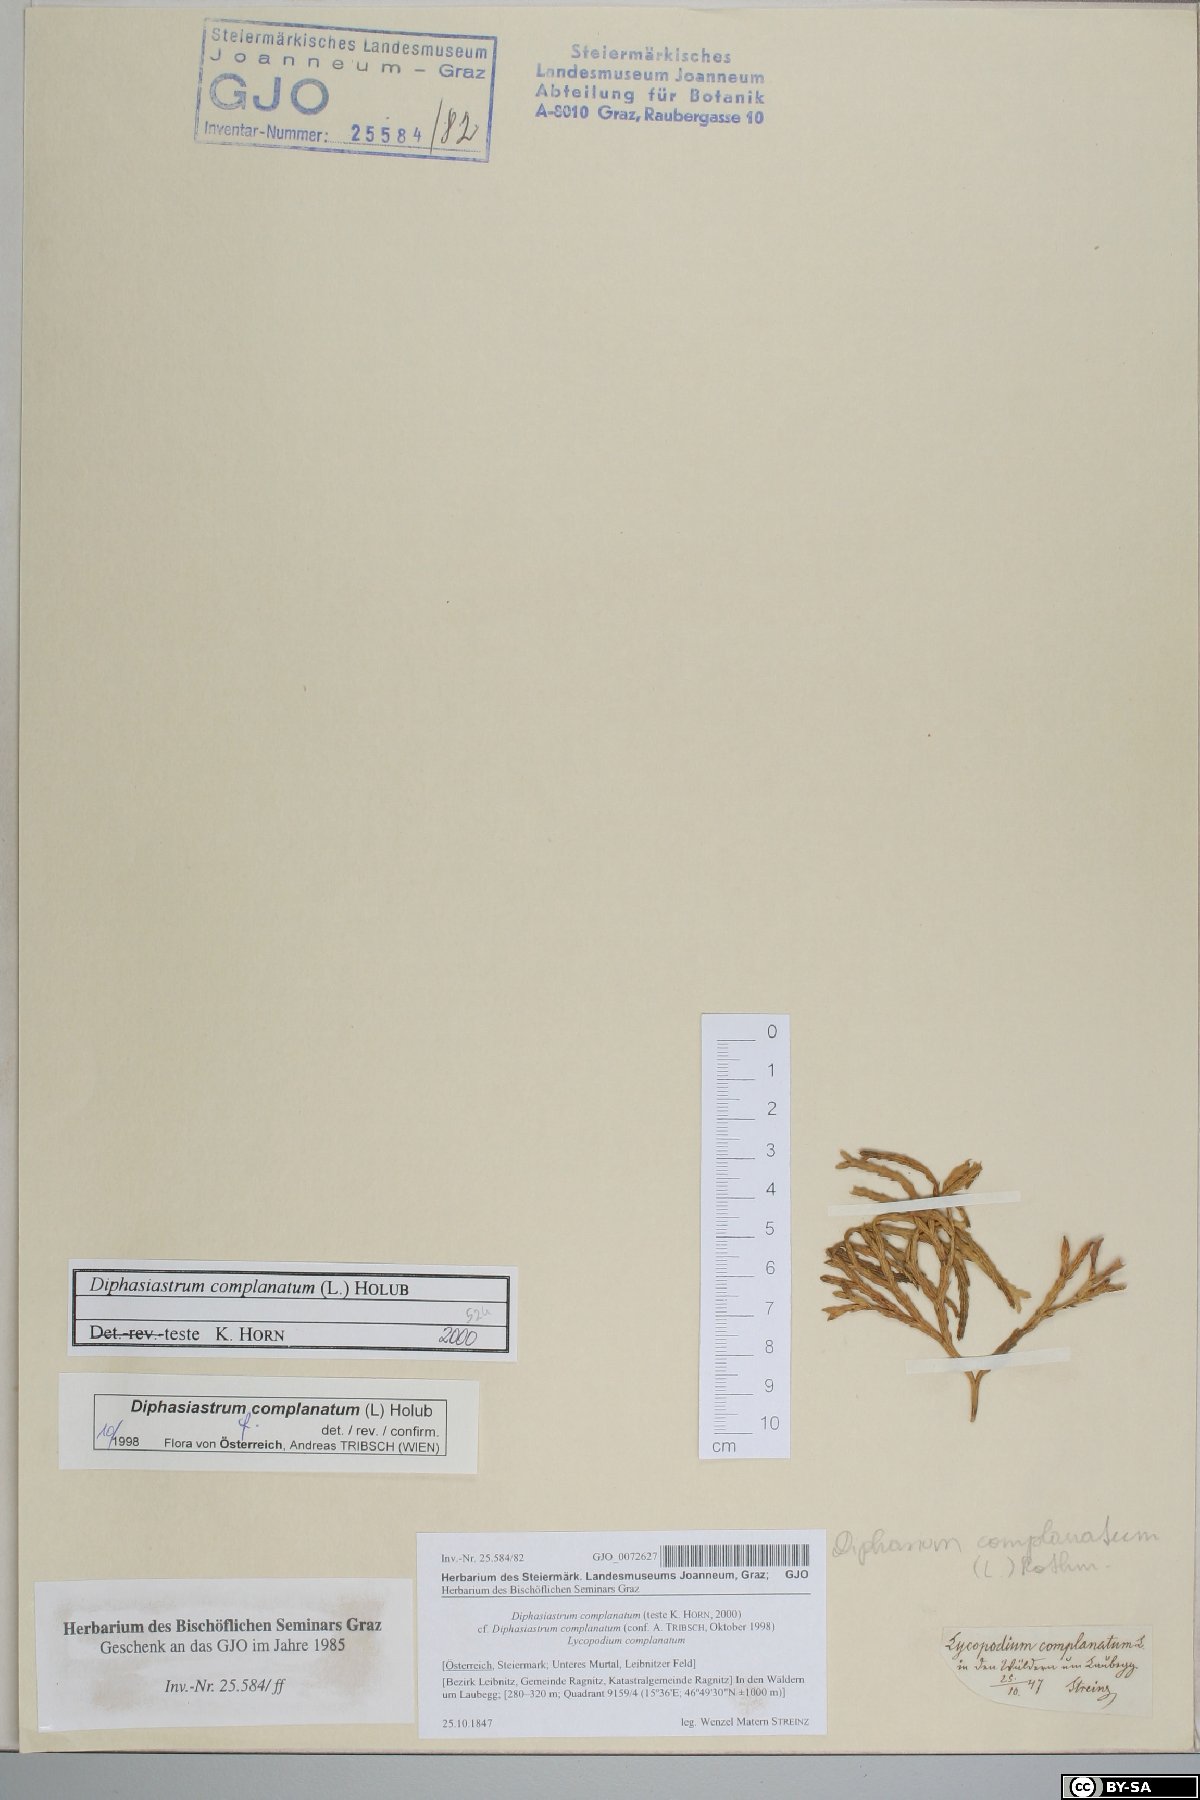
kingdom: Plantae
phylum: Tracheophyta
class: Lycopodiopsida
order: Lycopodiales
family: Lycopodiaceae
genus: Diphasiastrum
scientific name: Diphasiastrum complanatum
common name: Northern running-pine
